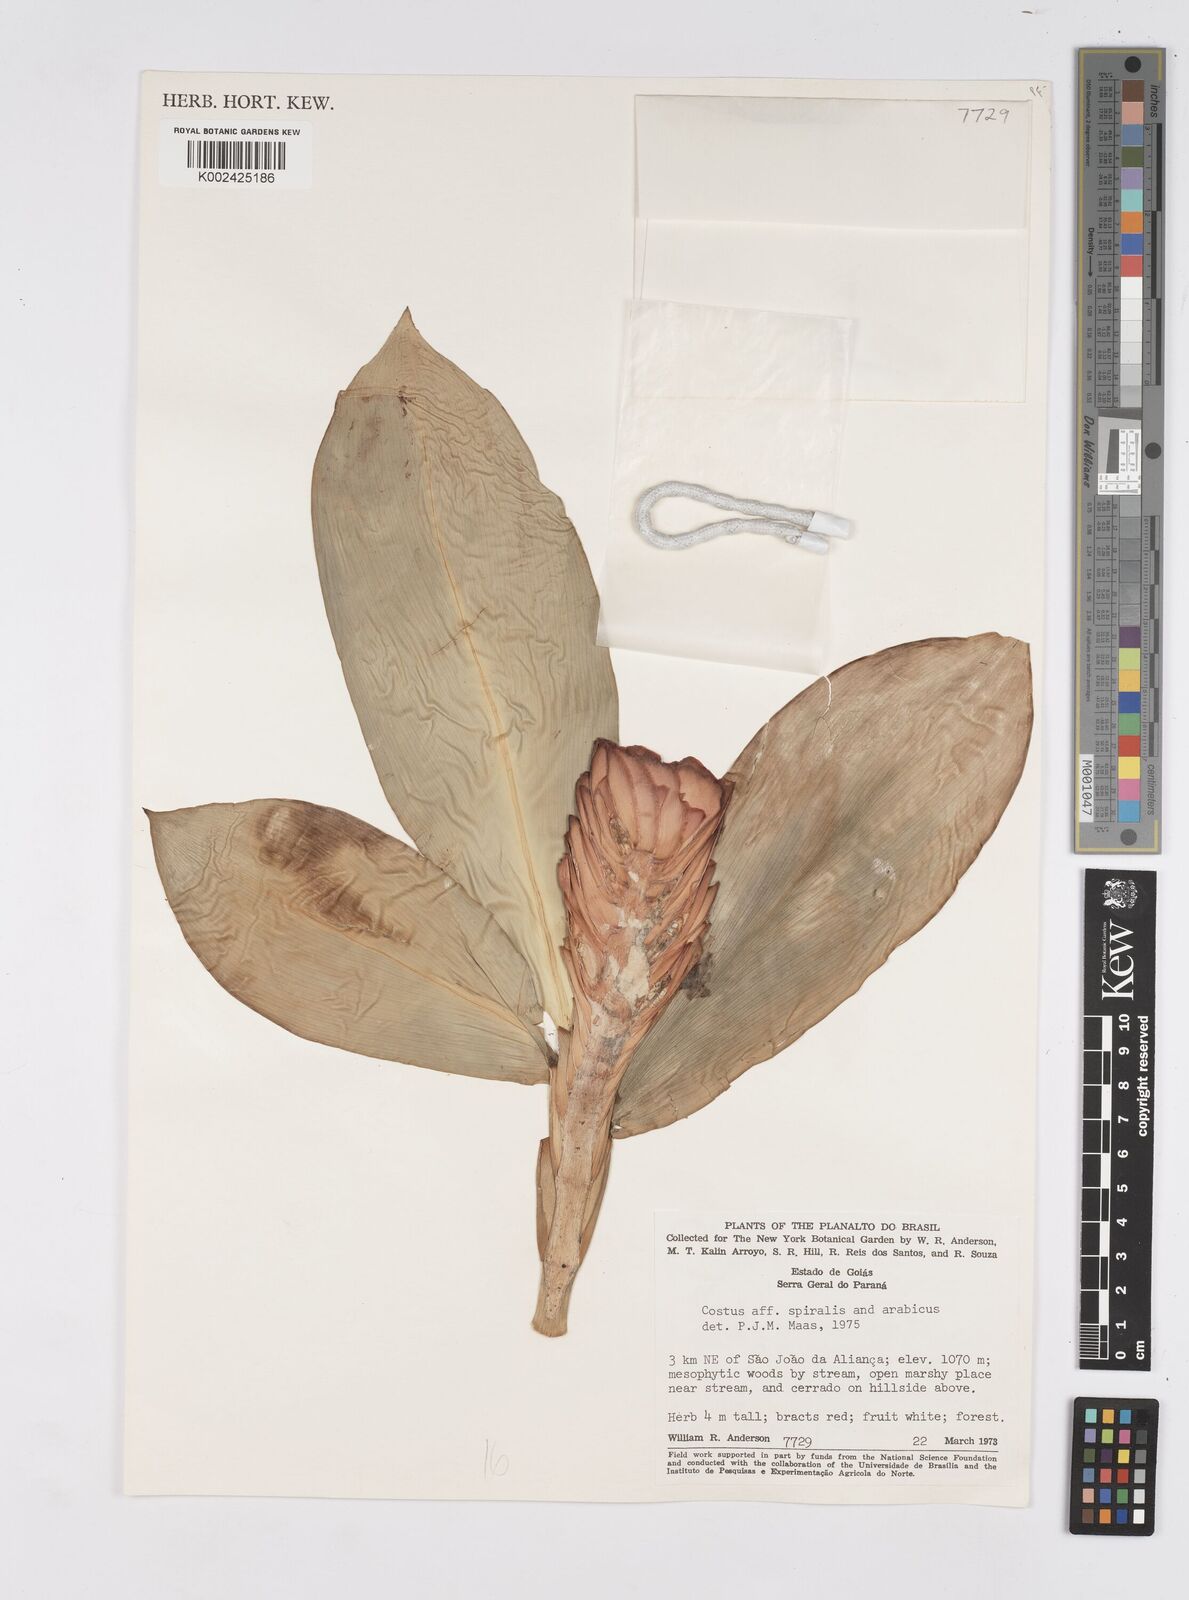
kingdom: Plantae
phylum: Tracheophyta
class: Liliopsida
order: Zingiberales
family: Costaceae
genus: Costus
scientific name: Costus spiralis
